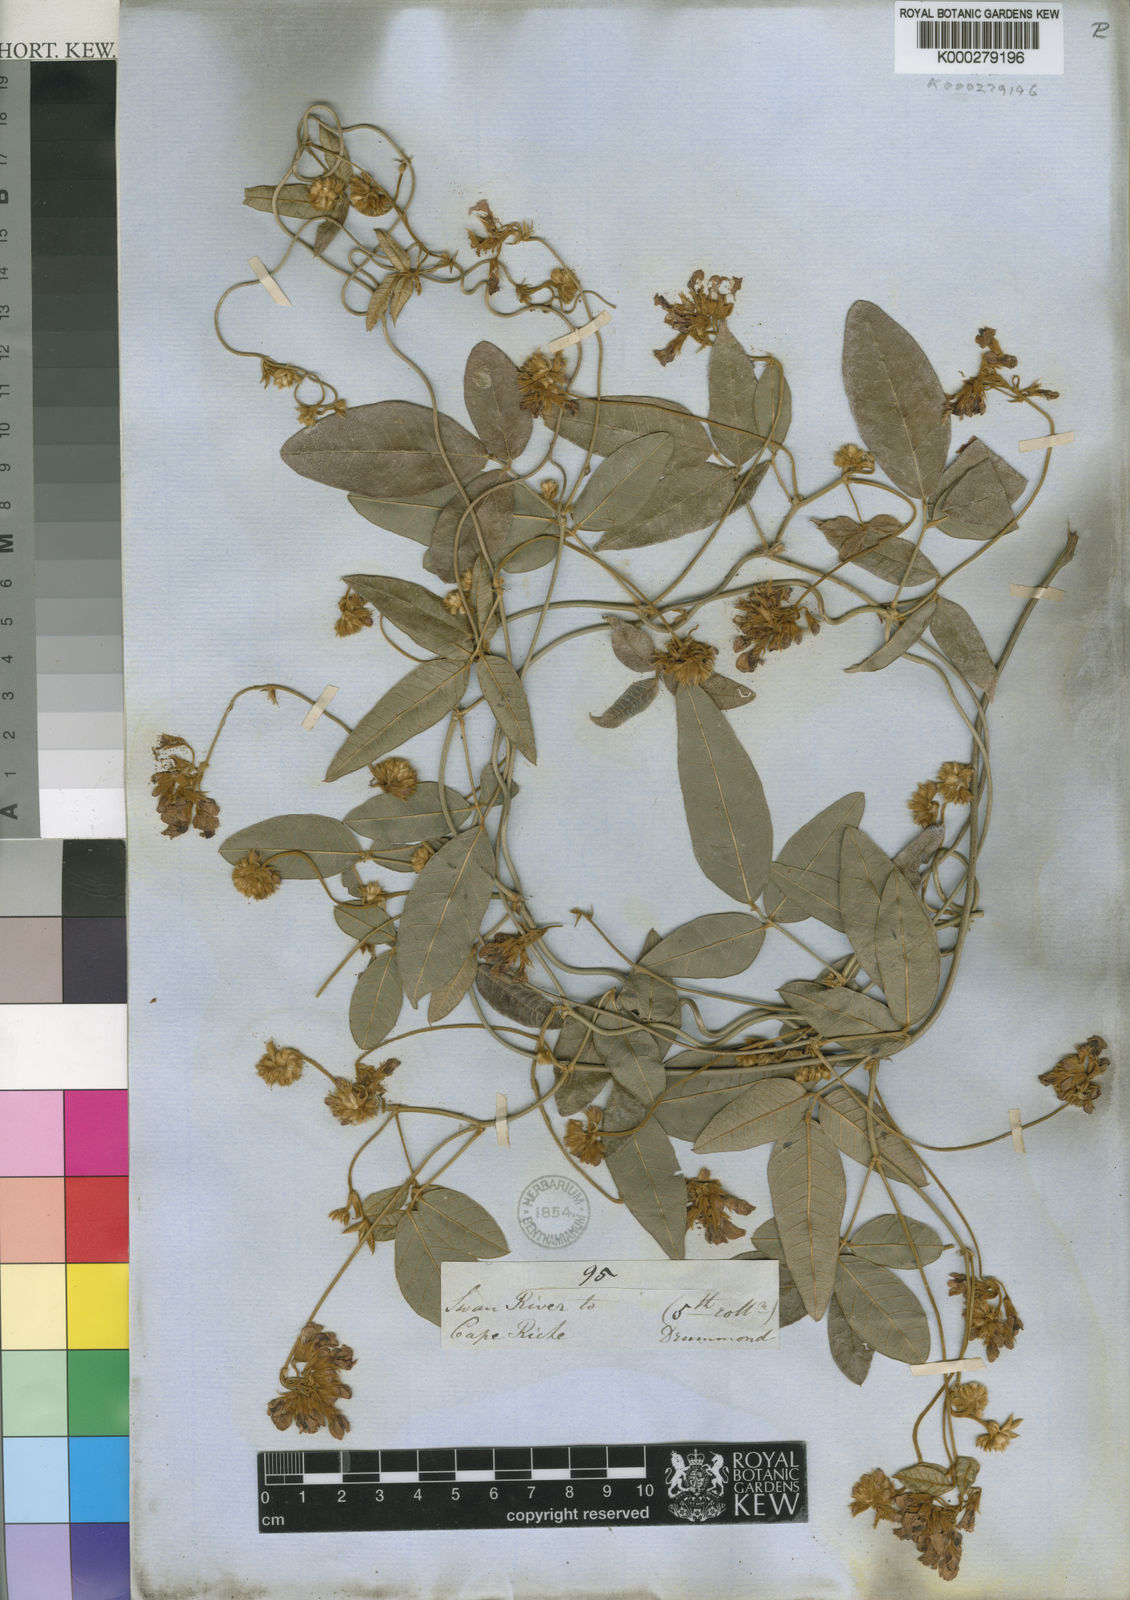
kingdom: Plantae
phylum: Tracheophyta
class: Magnoliopsida
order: Fabales
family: Fabaceae
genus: Kennedia
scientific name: Kennedia coccinea
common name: Coralvine
